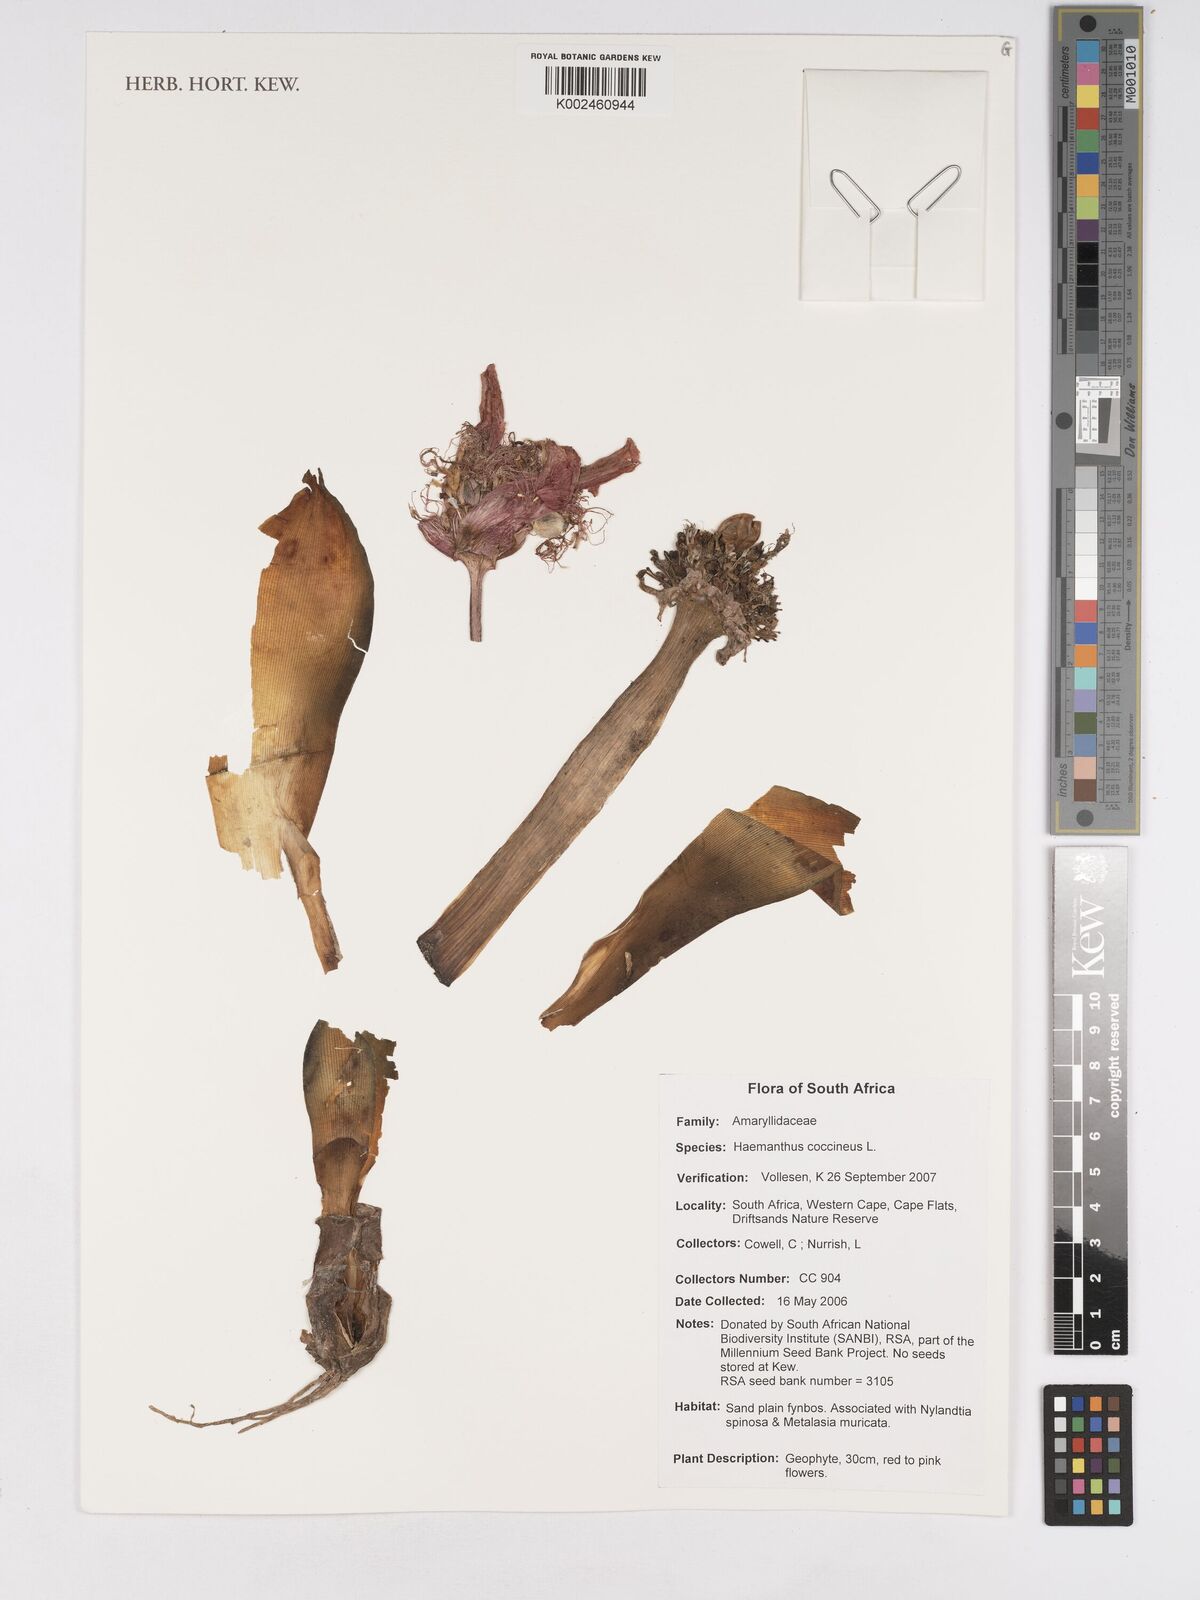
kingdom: Plantae
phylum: Tracheophyta
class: Liliopsida
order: Asparagales
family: Amaryllidaceae
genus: Haemanthus
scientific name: Haemanthus coccineus
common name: Cape-tulip
